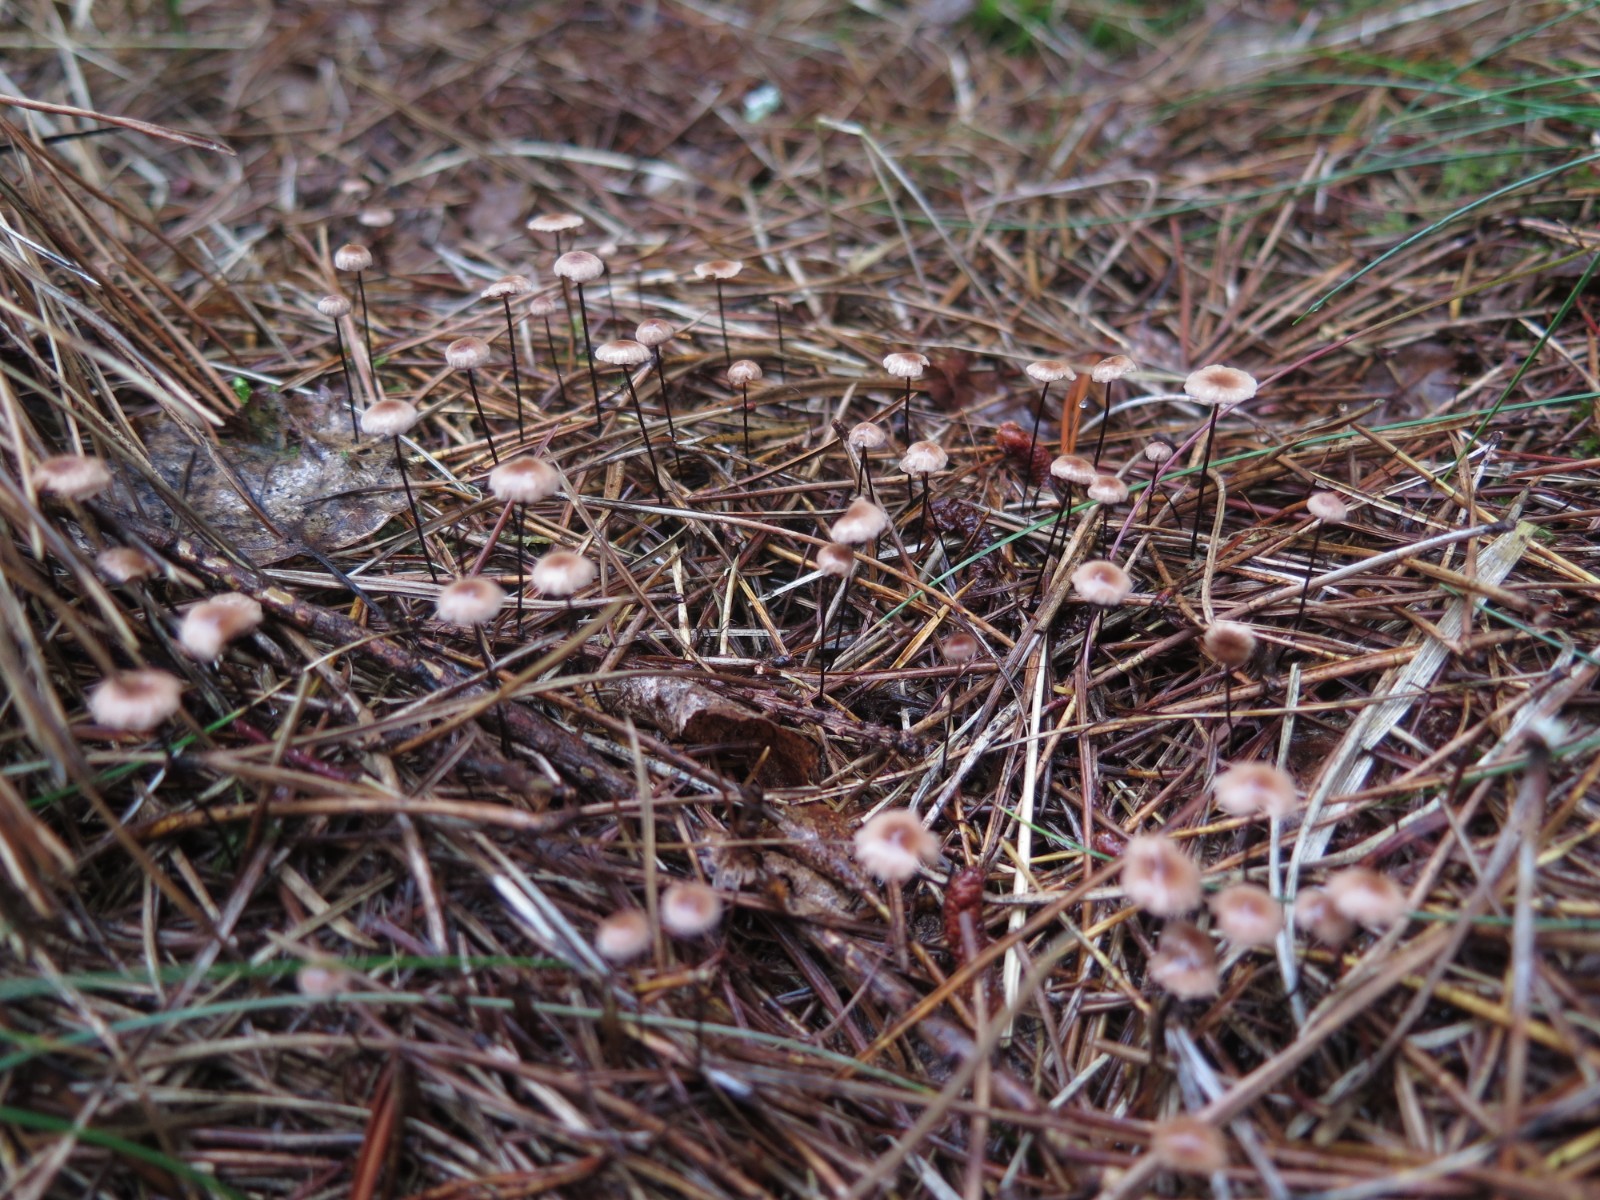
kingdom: Fungi
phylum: Basidiomycota
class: Agaricomycetes
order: Agaricales
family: Omphalotaceae
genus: Gymnopus
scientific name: Gymnopus androsaceus
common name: trådstokket fladhat
